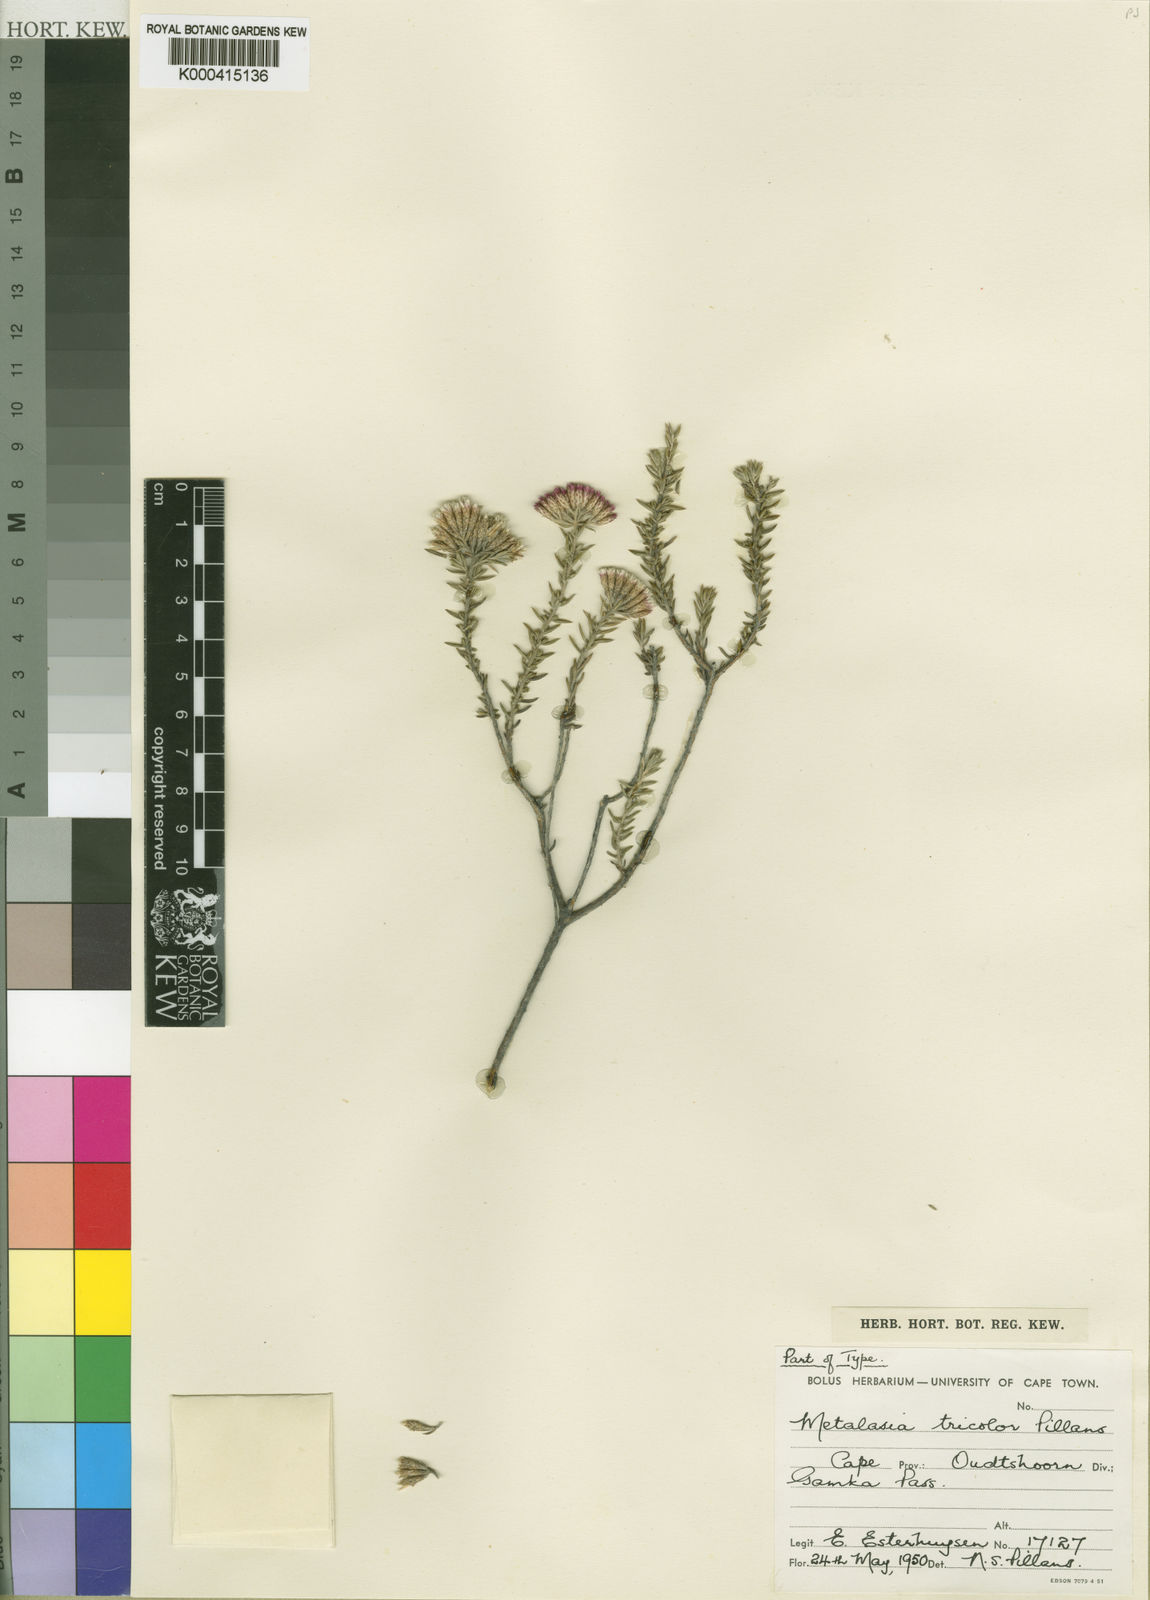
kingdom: Plantae
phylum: Tracheophyta
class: Magnoliopsida
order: Asterales
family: Asteraceae
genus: Metalasia
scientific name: Metalasia tricolor
